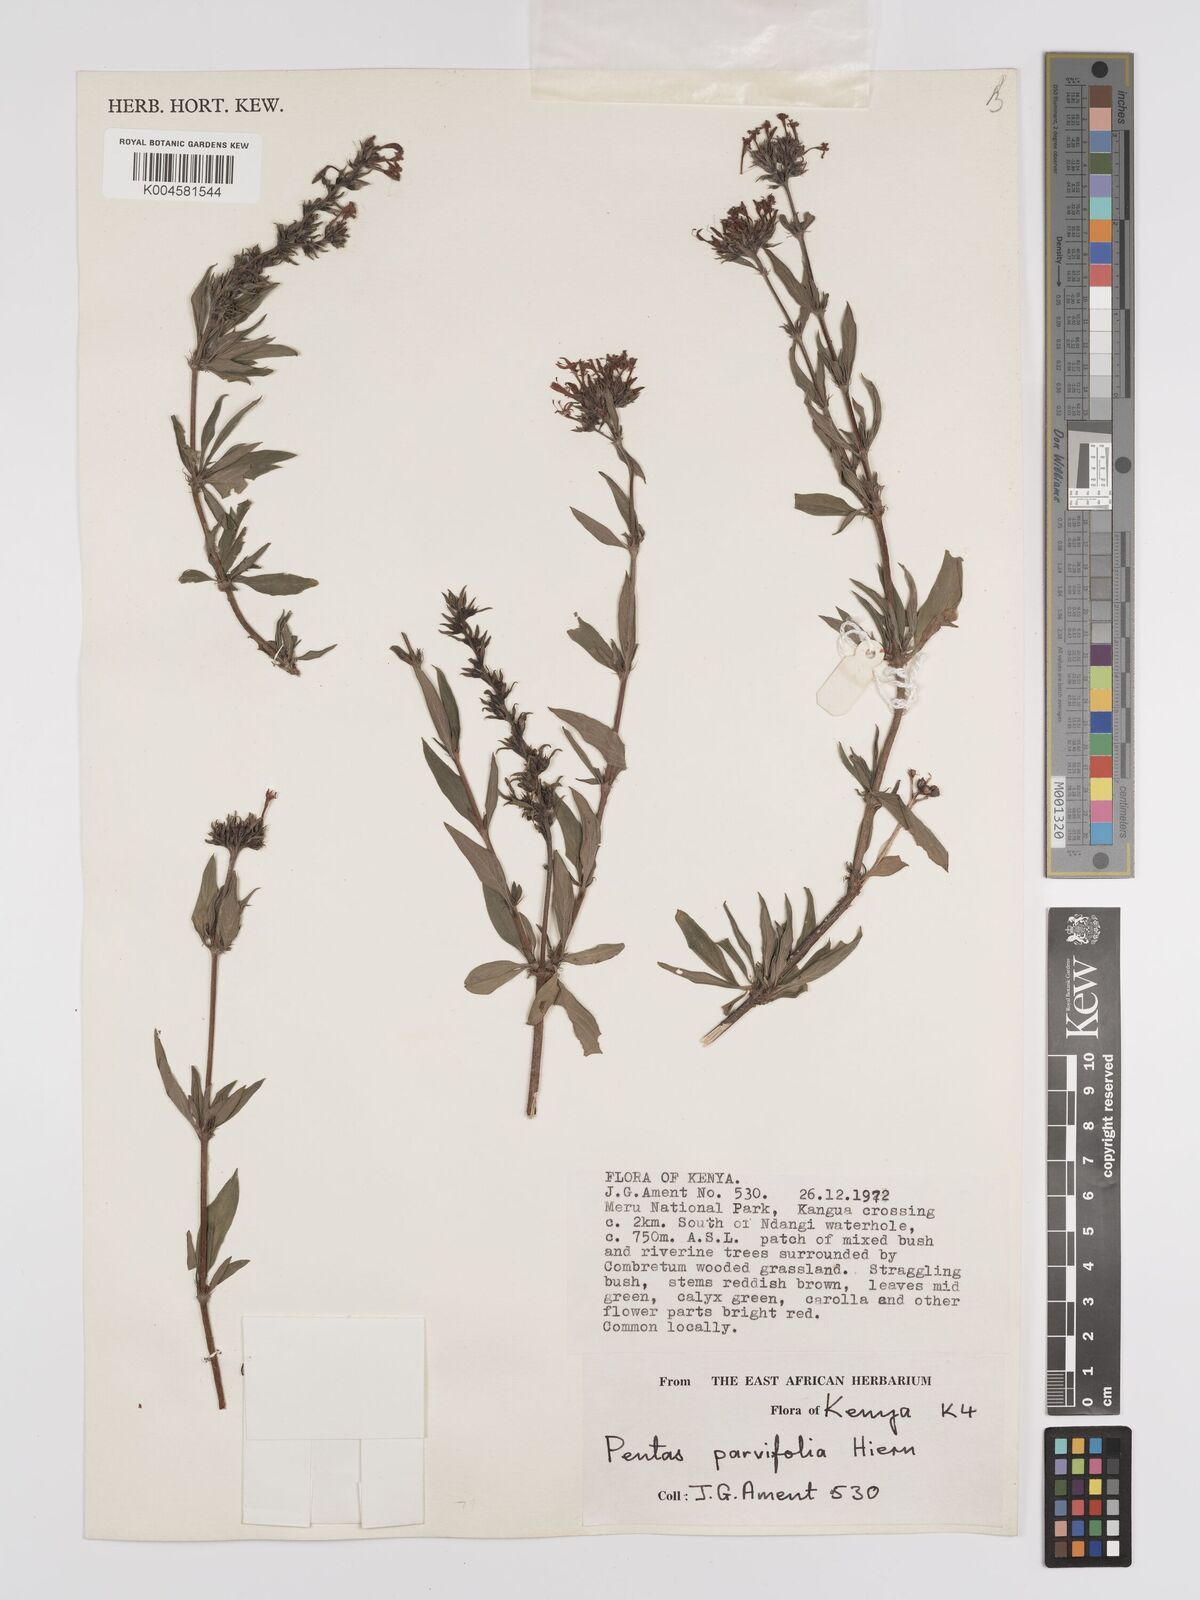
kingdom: Plantae
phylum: Tracheophyta
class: Magnoliopsida
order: Gentianales
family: Rubiaceae
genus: Rhodopentas
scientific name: Rhodopentas parvifolia
